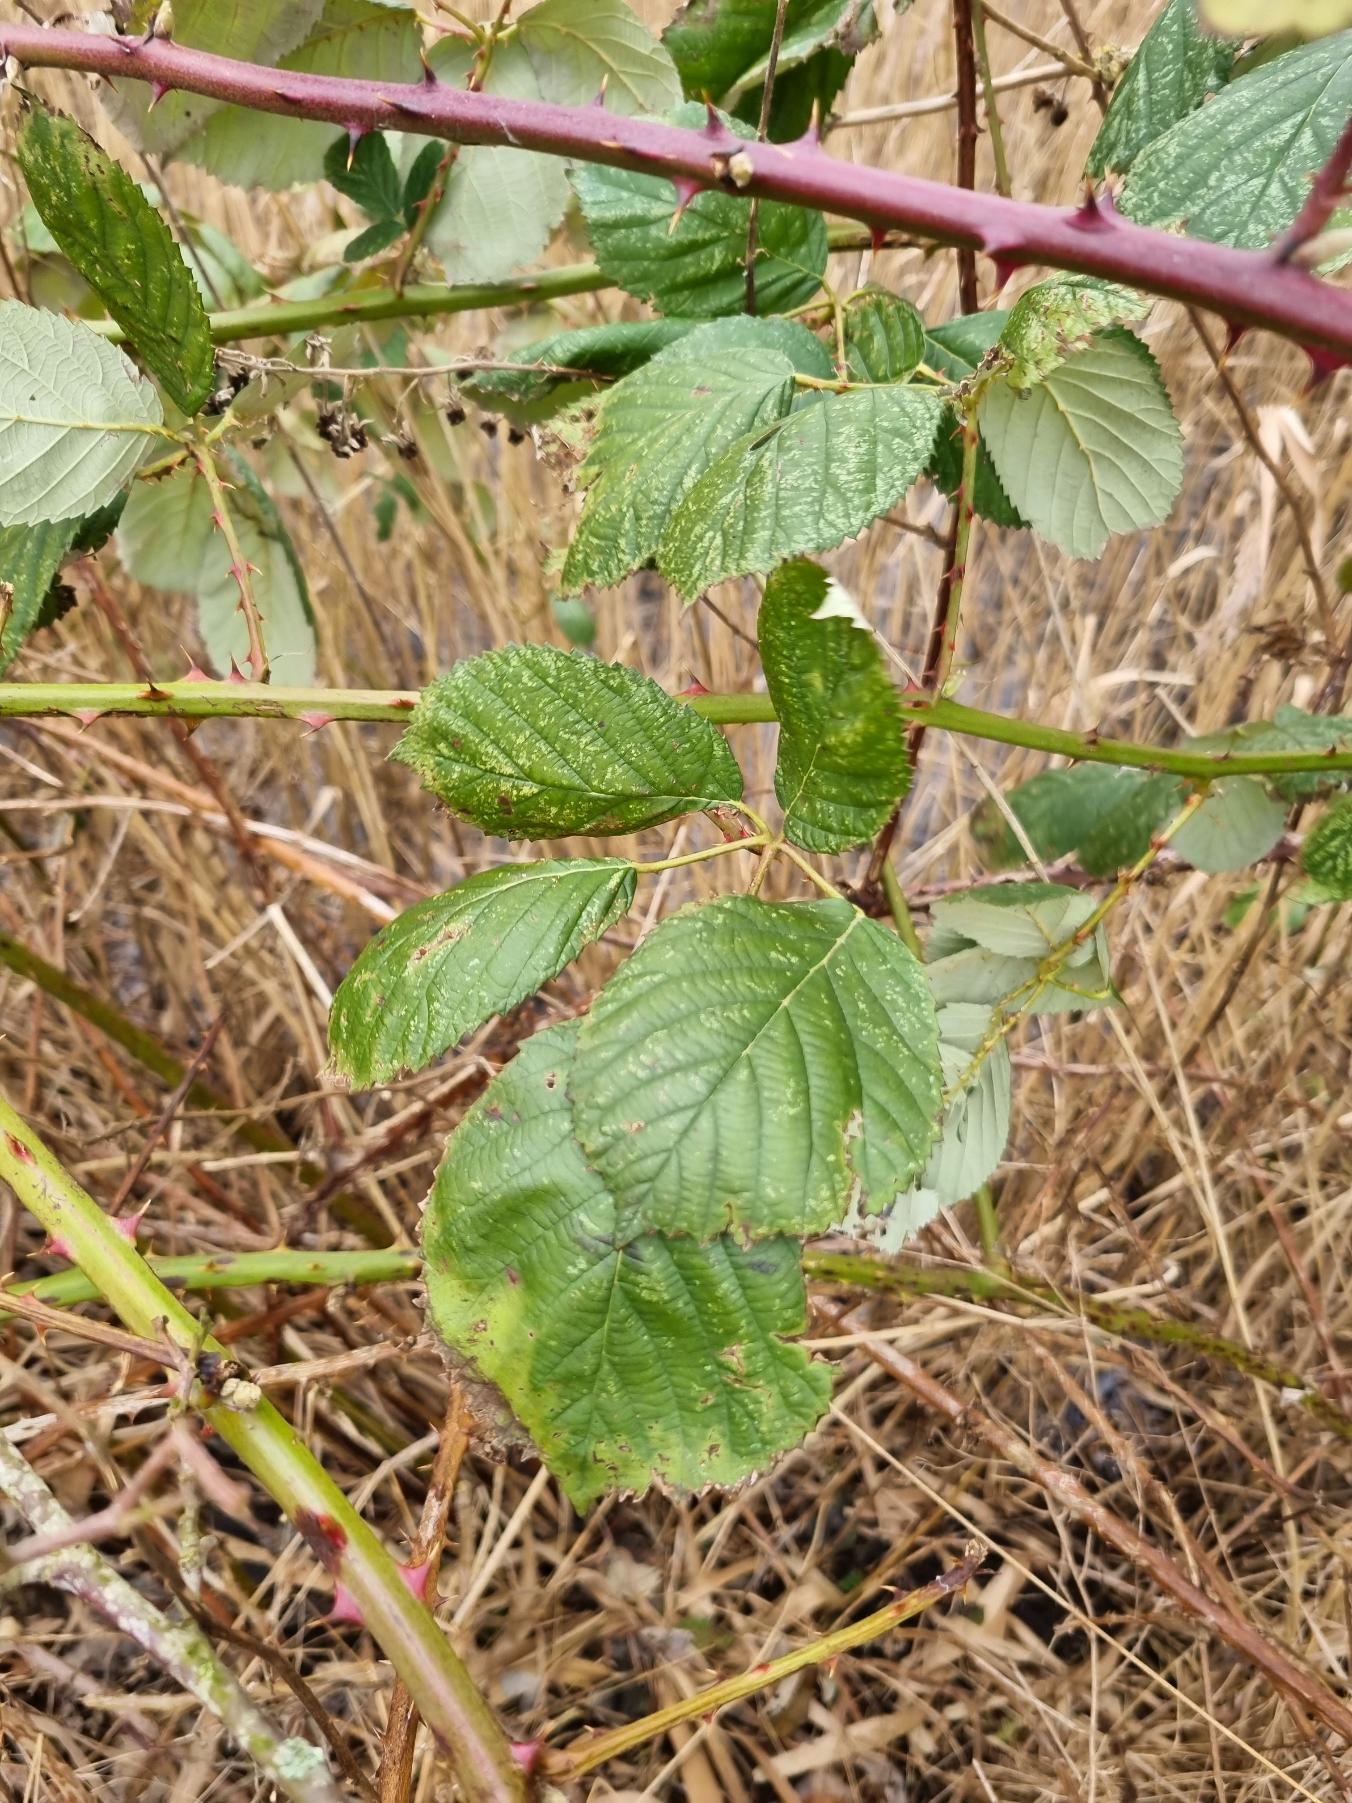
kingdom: Plantae
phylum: Tracheophyta
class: Magnoliopsida
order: Rosales
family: Rosaceae
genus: Rubus
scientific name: Rubus armeniacus
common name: Armensk brombær
